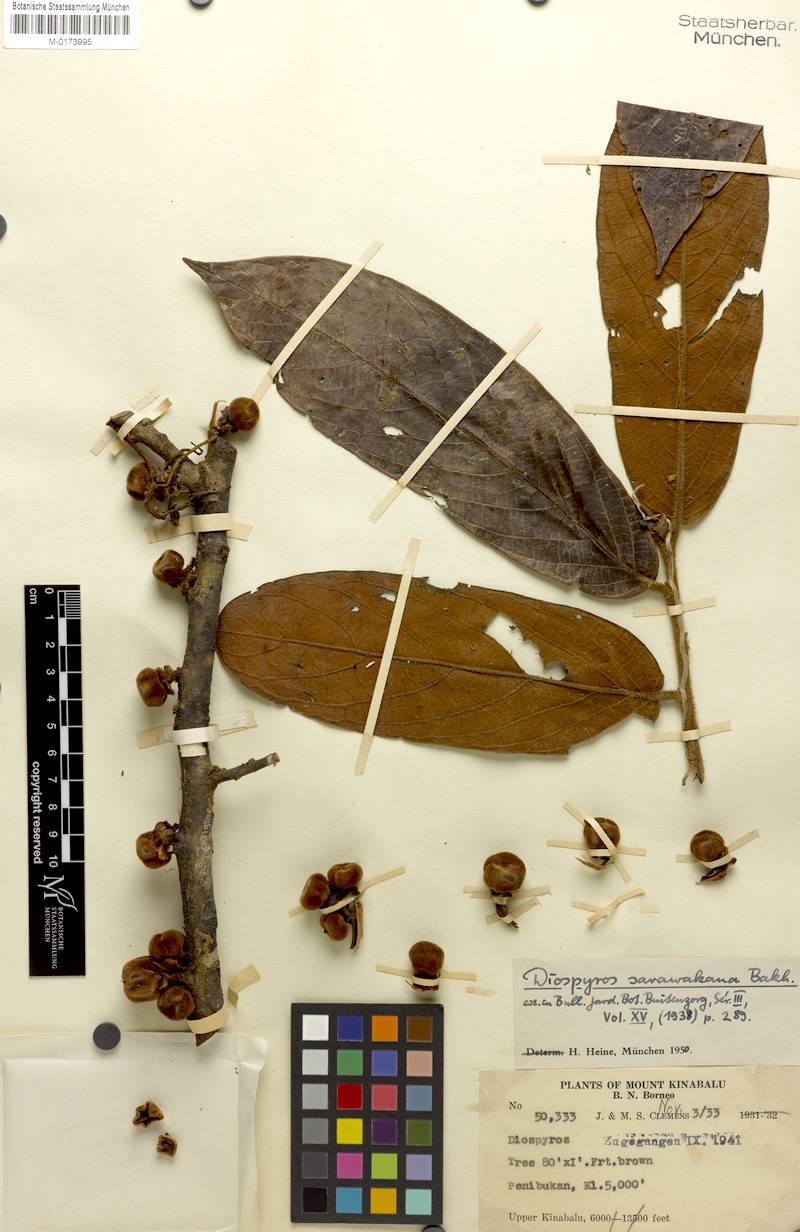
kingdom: Plantae
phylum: Tracheophyta
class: Magnoliopsida
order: Ericales
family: Ebenaceae
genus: Diospyros
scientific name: Diospyros styraciformis
